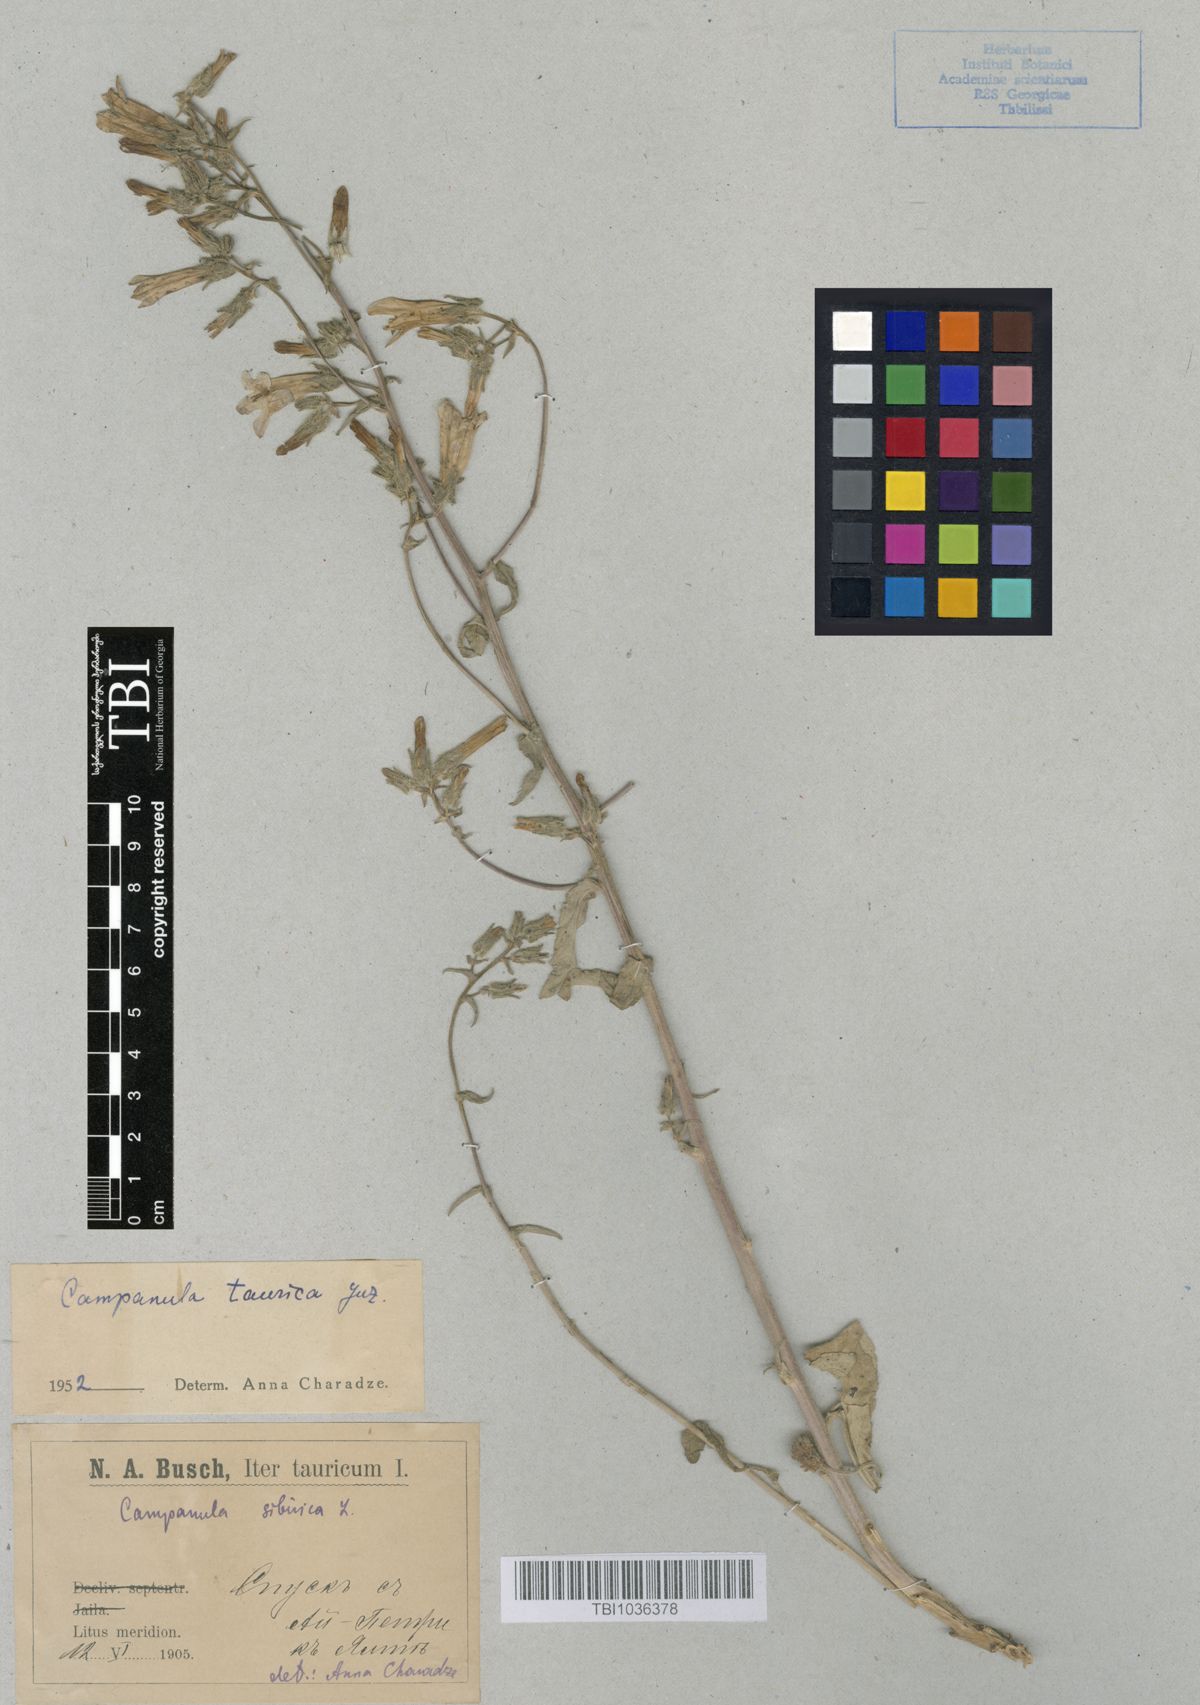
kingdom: Plantae
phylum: Tracheophyta
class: Magnoliopsida
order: Asterales
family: Campanulaceae
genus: Campanula
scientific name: Campanula sibirica
